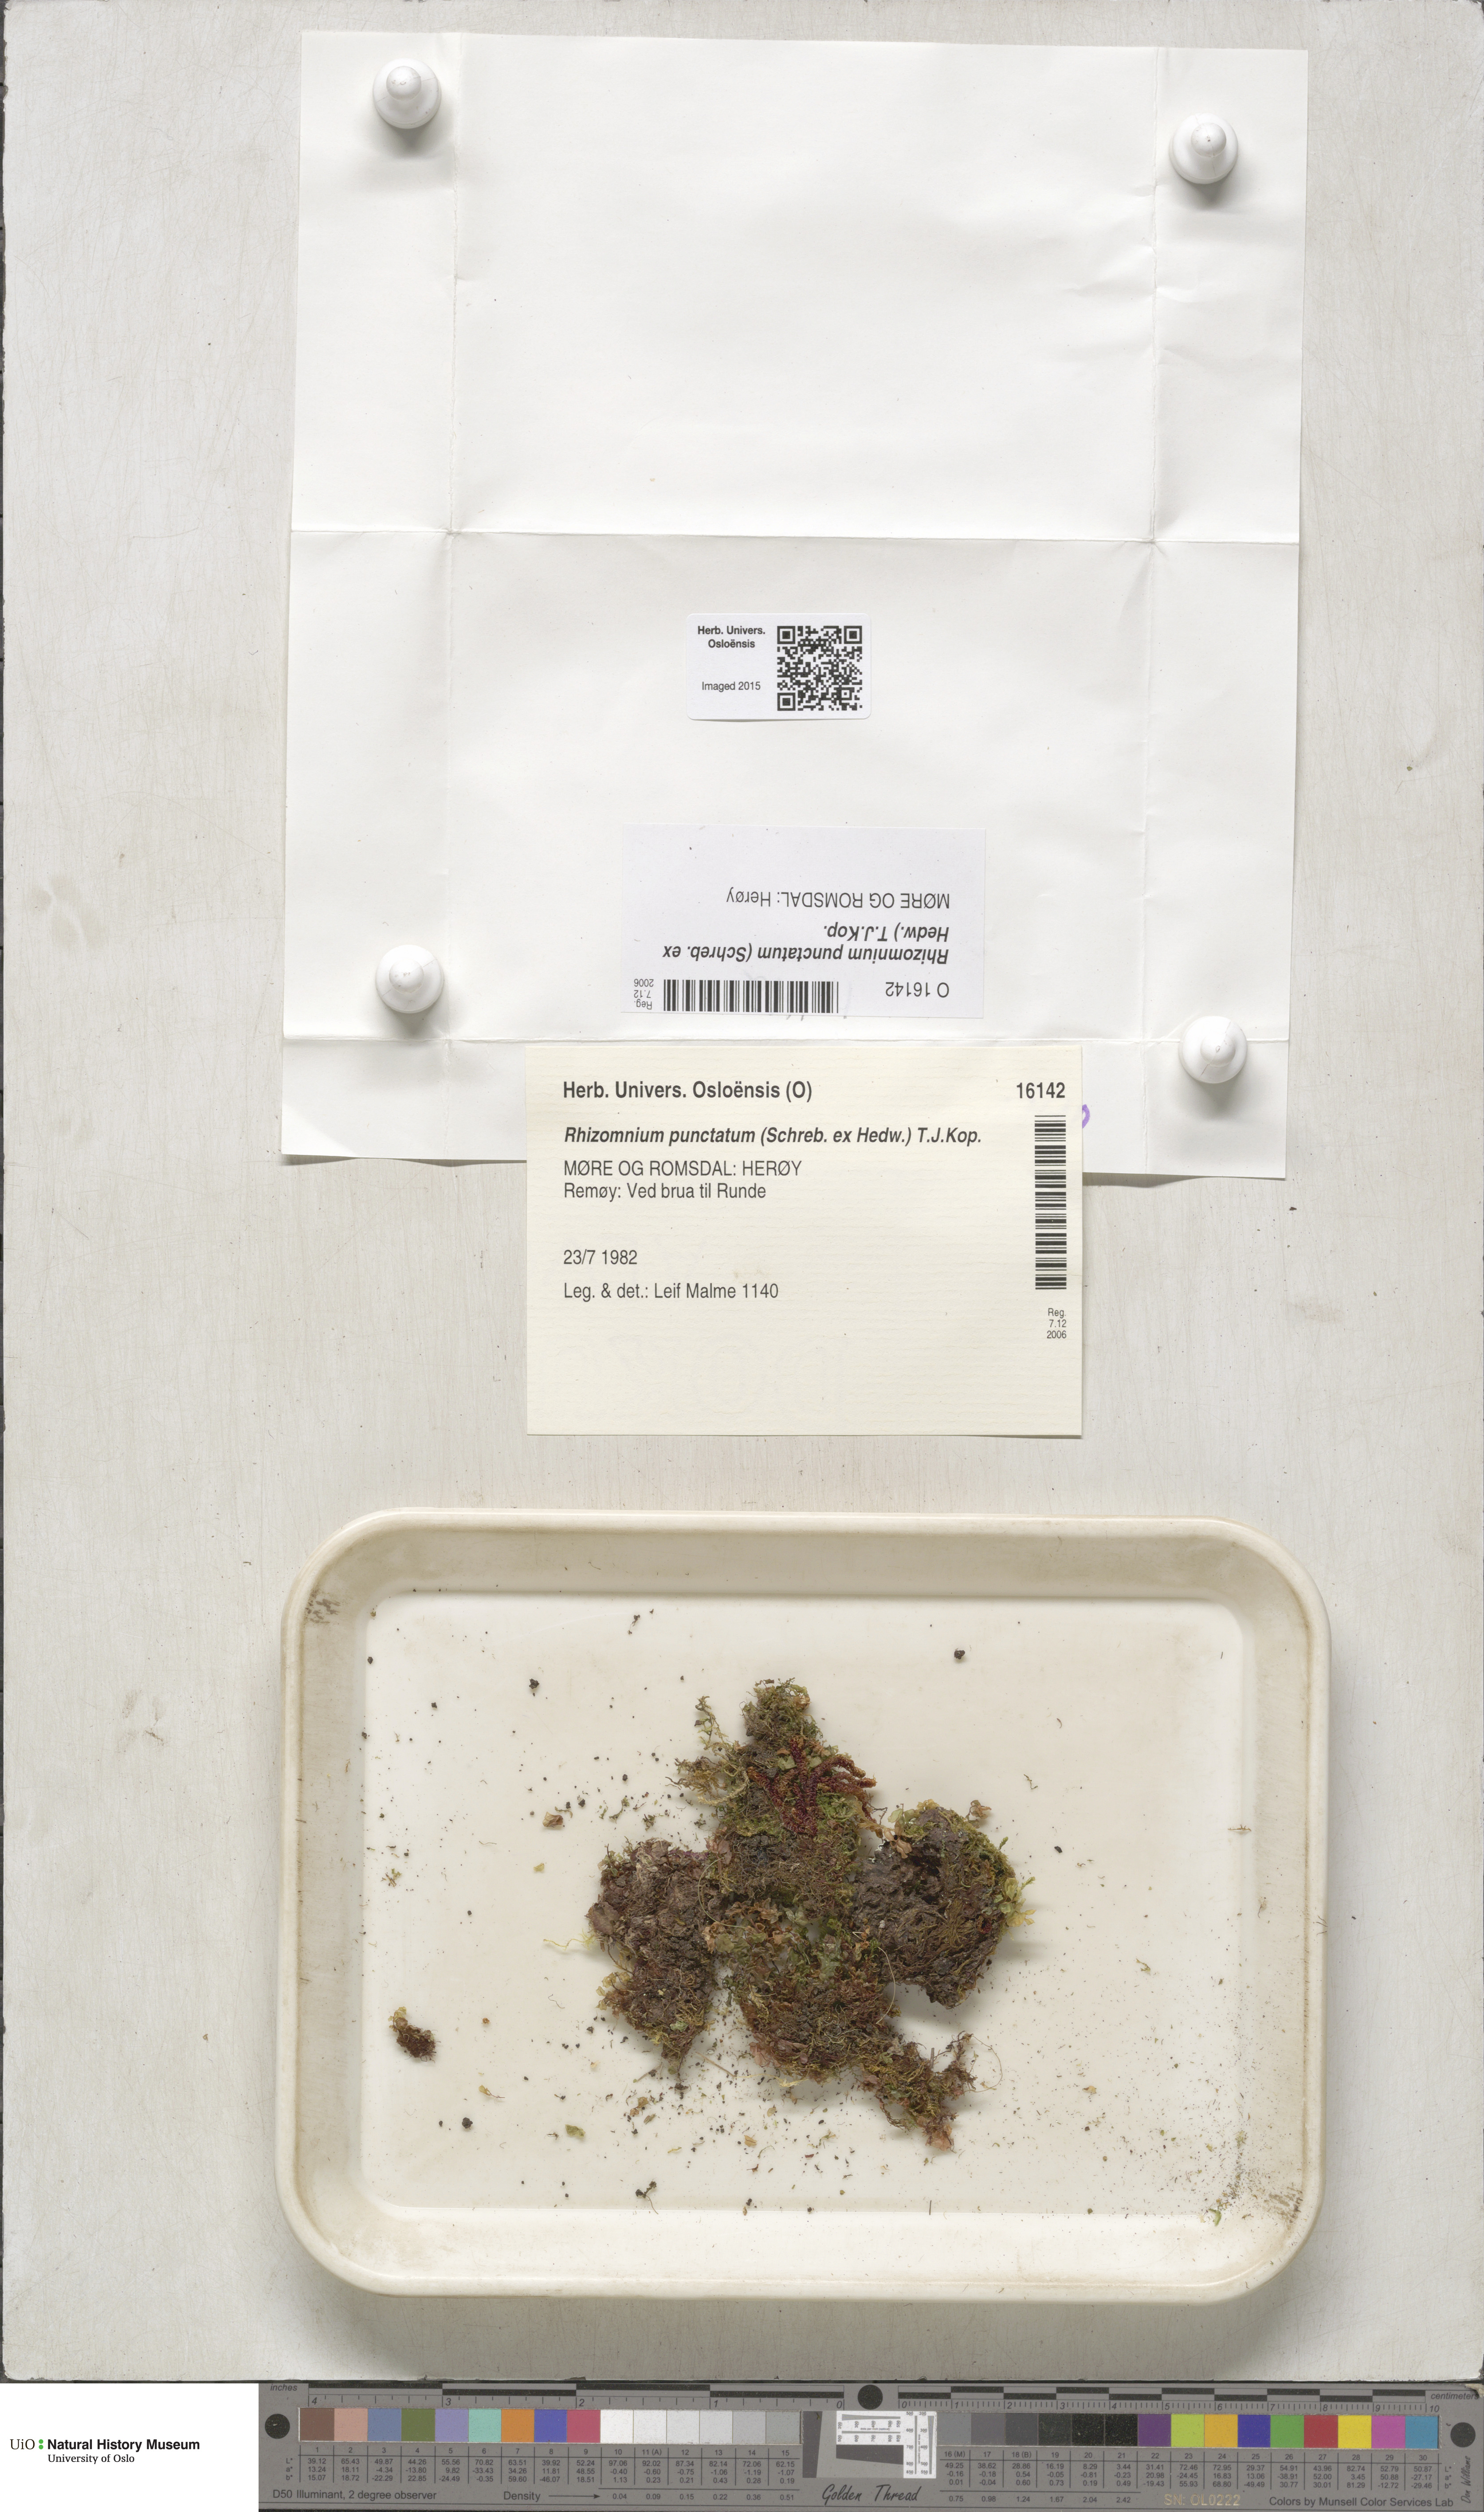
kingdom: Plantae
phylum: Bryophyta
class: Bryopsida
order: Bryales
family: Mniaceae
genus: Rhizomnium
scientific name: Rhizomnium punctatum
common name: Dotted leafy moss
